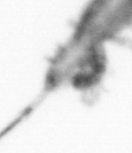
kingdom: Animalia
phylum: Arthropoda
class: Copepoda
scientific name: Copepoda
